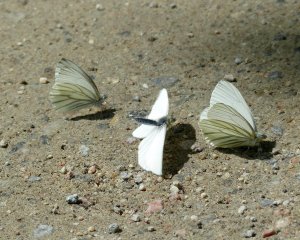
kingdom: Animalia
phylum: Arthropoda
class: Insecta
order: Lepidoptera
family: Pieridae
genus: Pieris
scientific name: Pieris oleracea
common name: Mustard White
